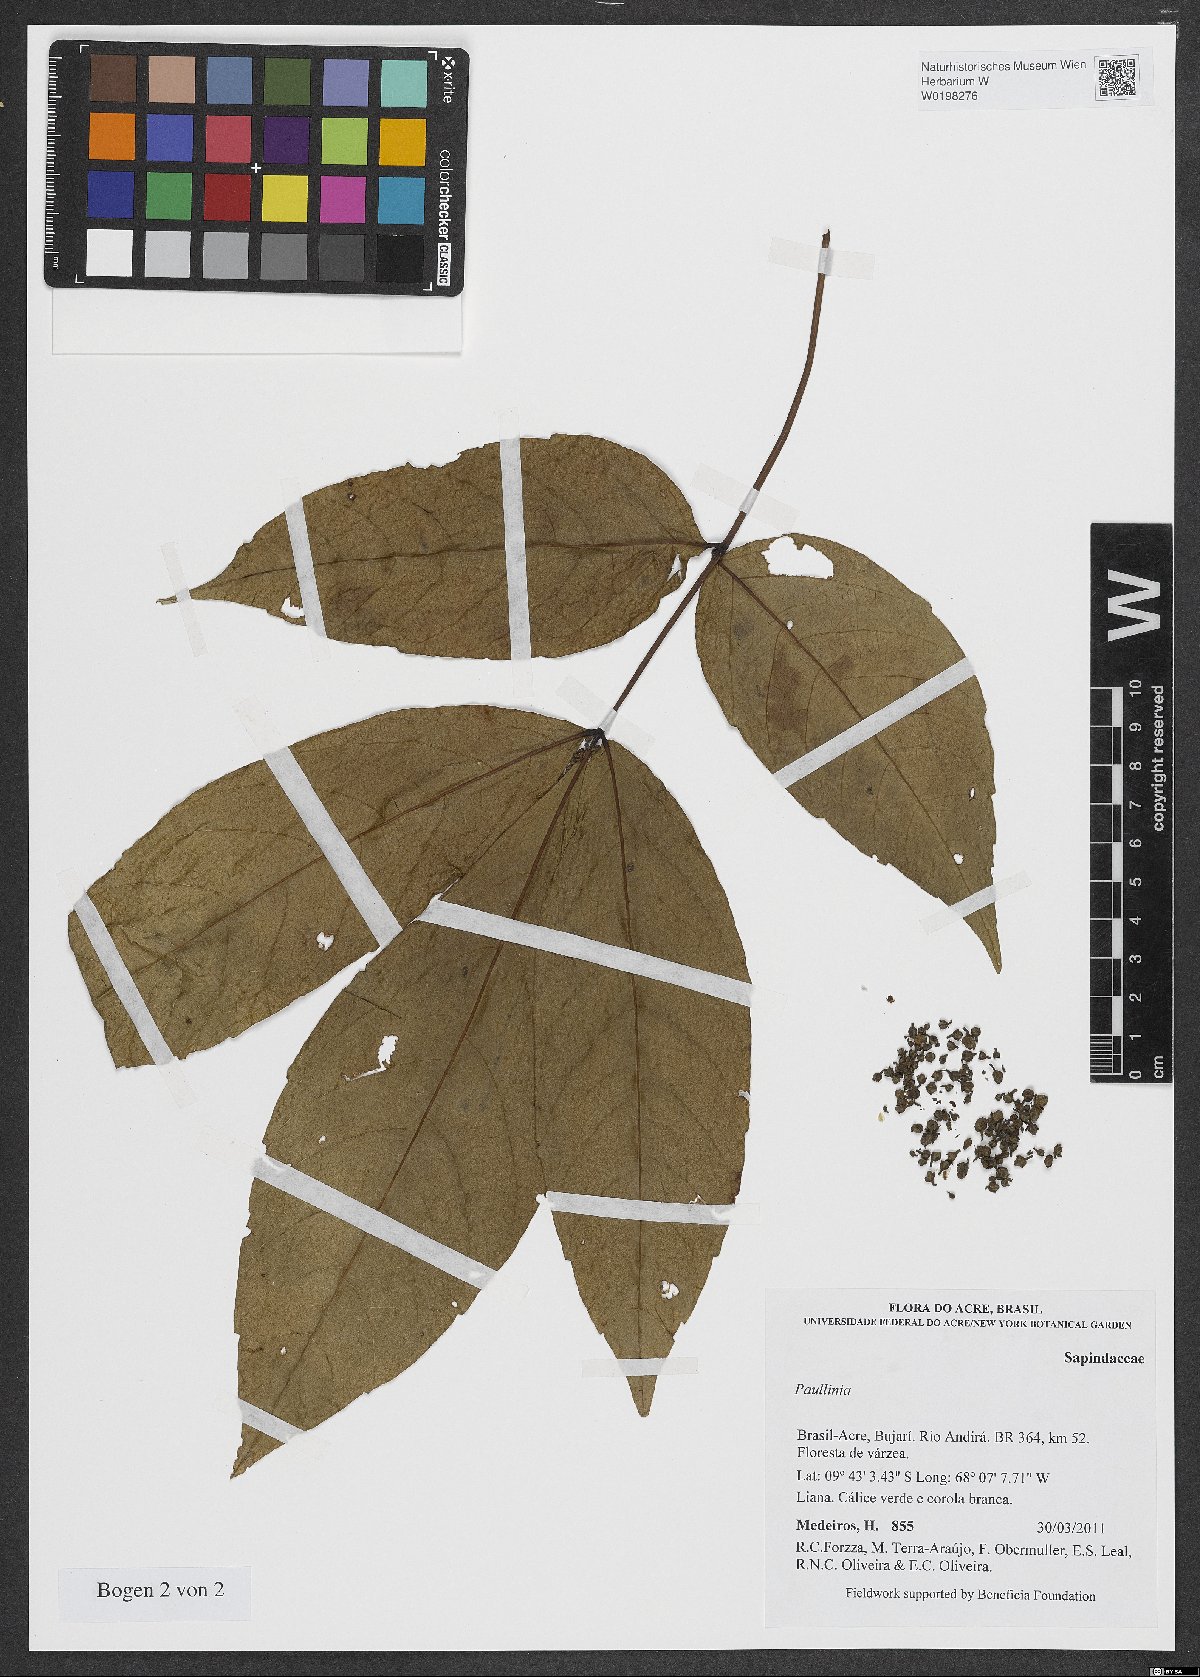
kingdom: Plantae
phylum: Tracheophyta
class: Magnoliopsida
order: Sapindales
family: Sapindaceae
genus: Paullinia
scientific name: Paullinia globosa
